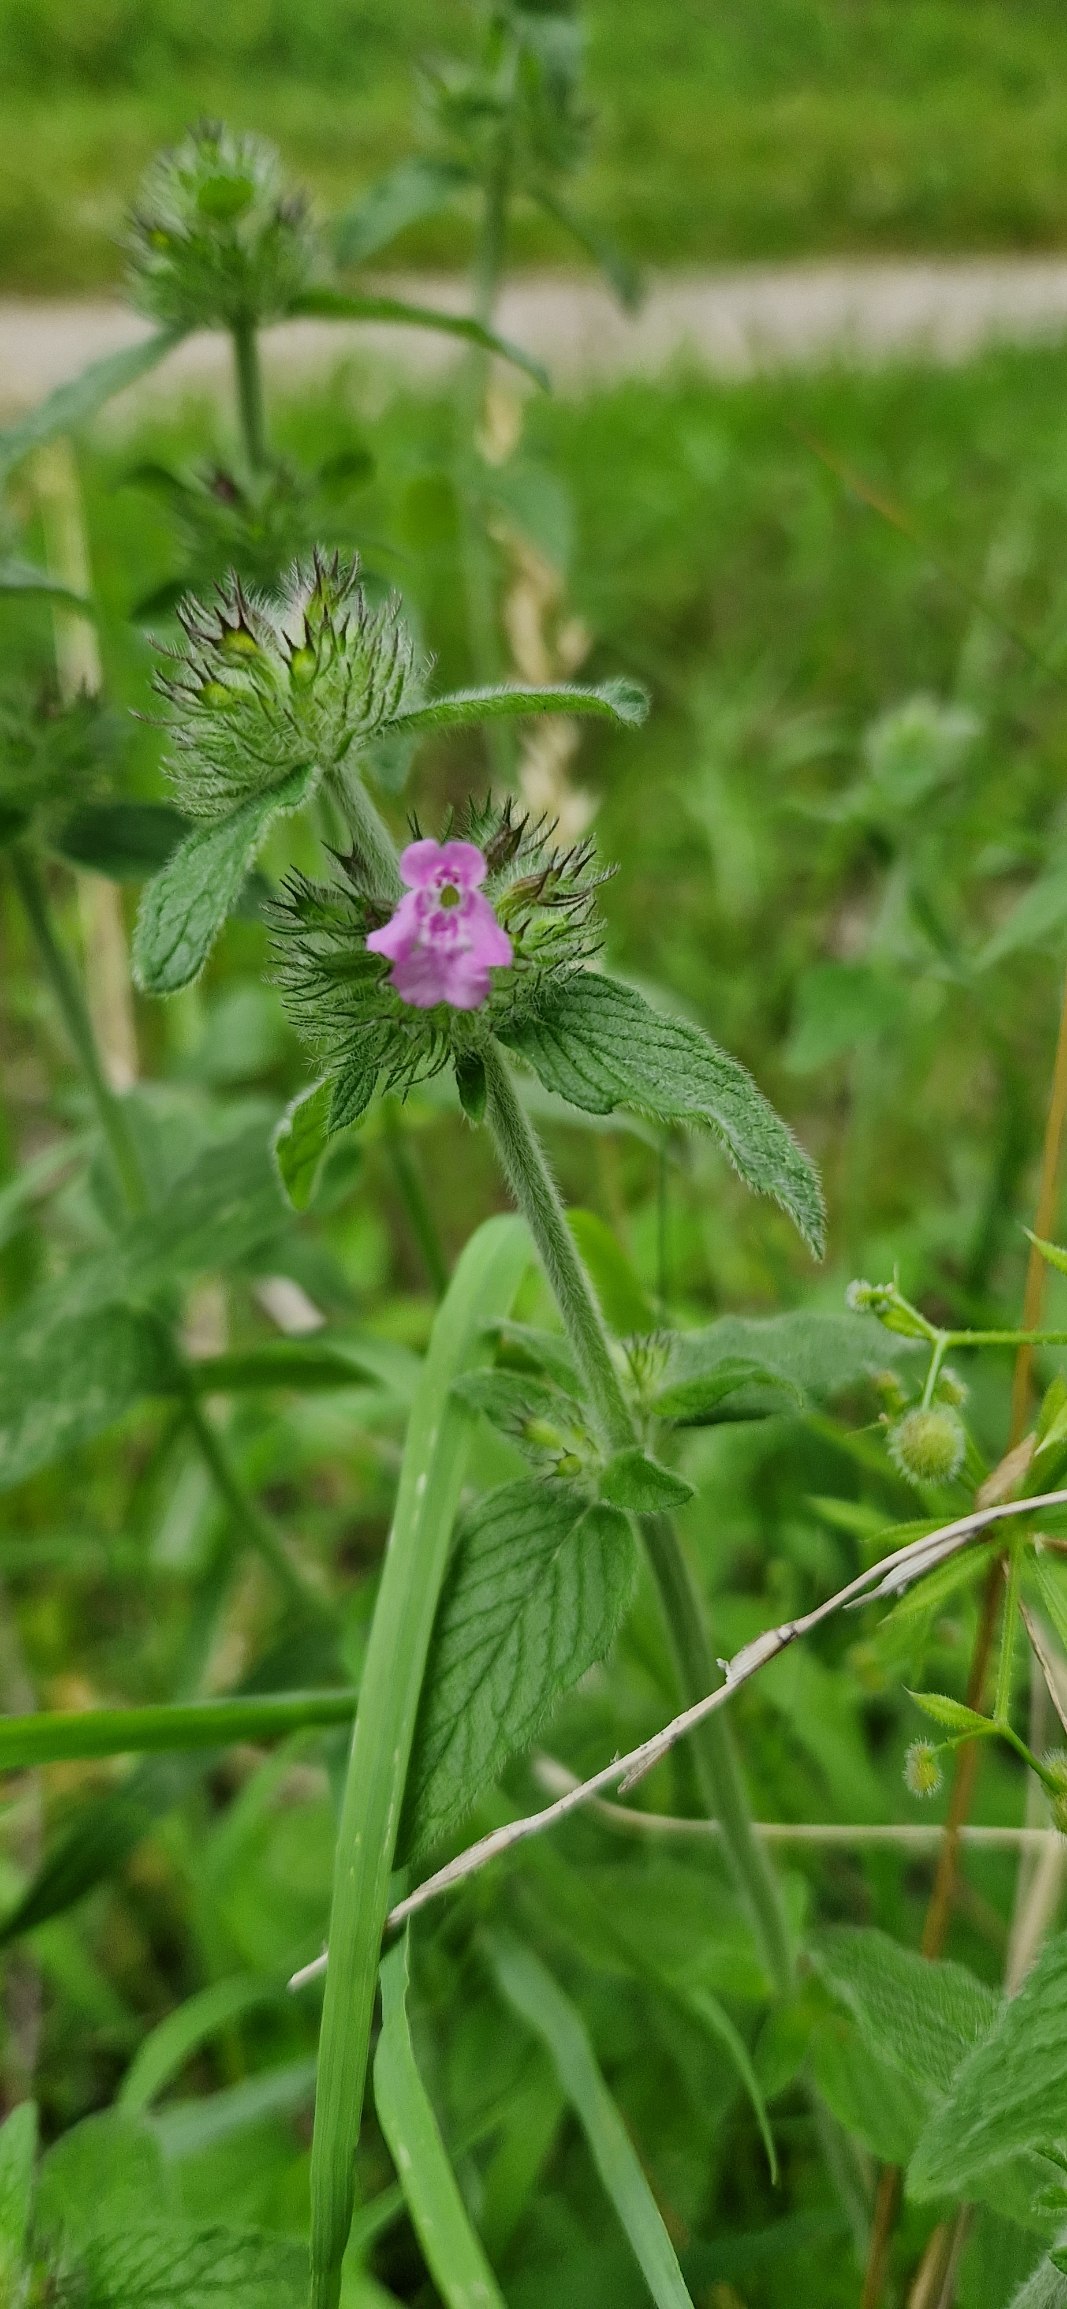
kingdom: Plantae
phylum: Tracheophyta
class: Magnoliopsida
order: Lamiales
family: Lamiaceae
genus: Clinopodium
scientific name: Clinopodium vulgare
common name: Kransbørste
